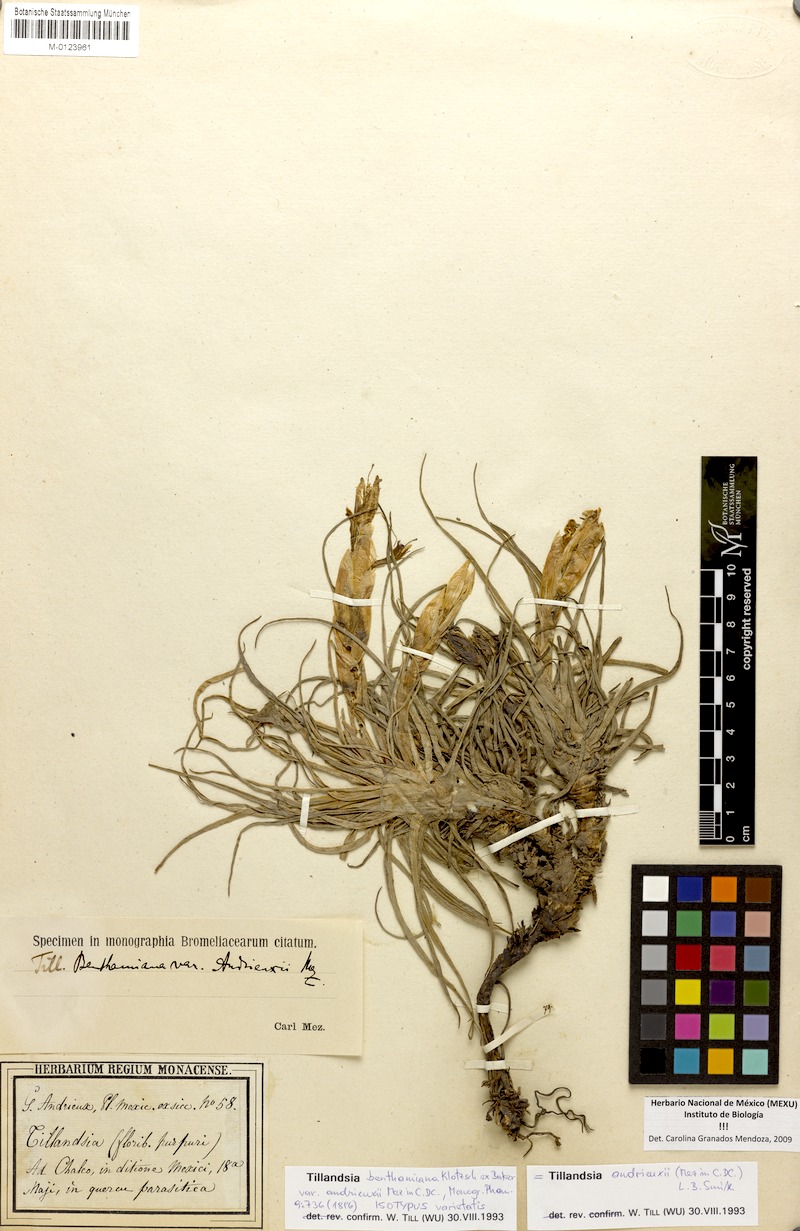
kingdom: Plantae
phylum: Tracheophyta
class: Liliopsida
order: Poales
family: Bromeliaceae
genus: Tillandsia
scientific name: Tillandsia andrieuxii
